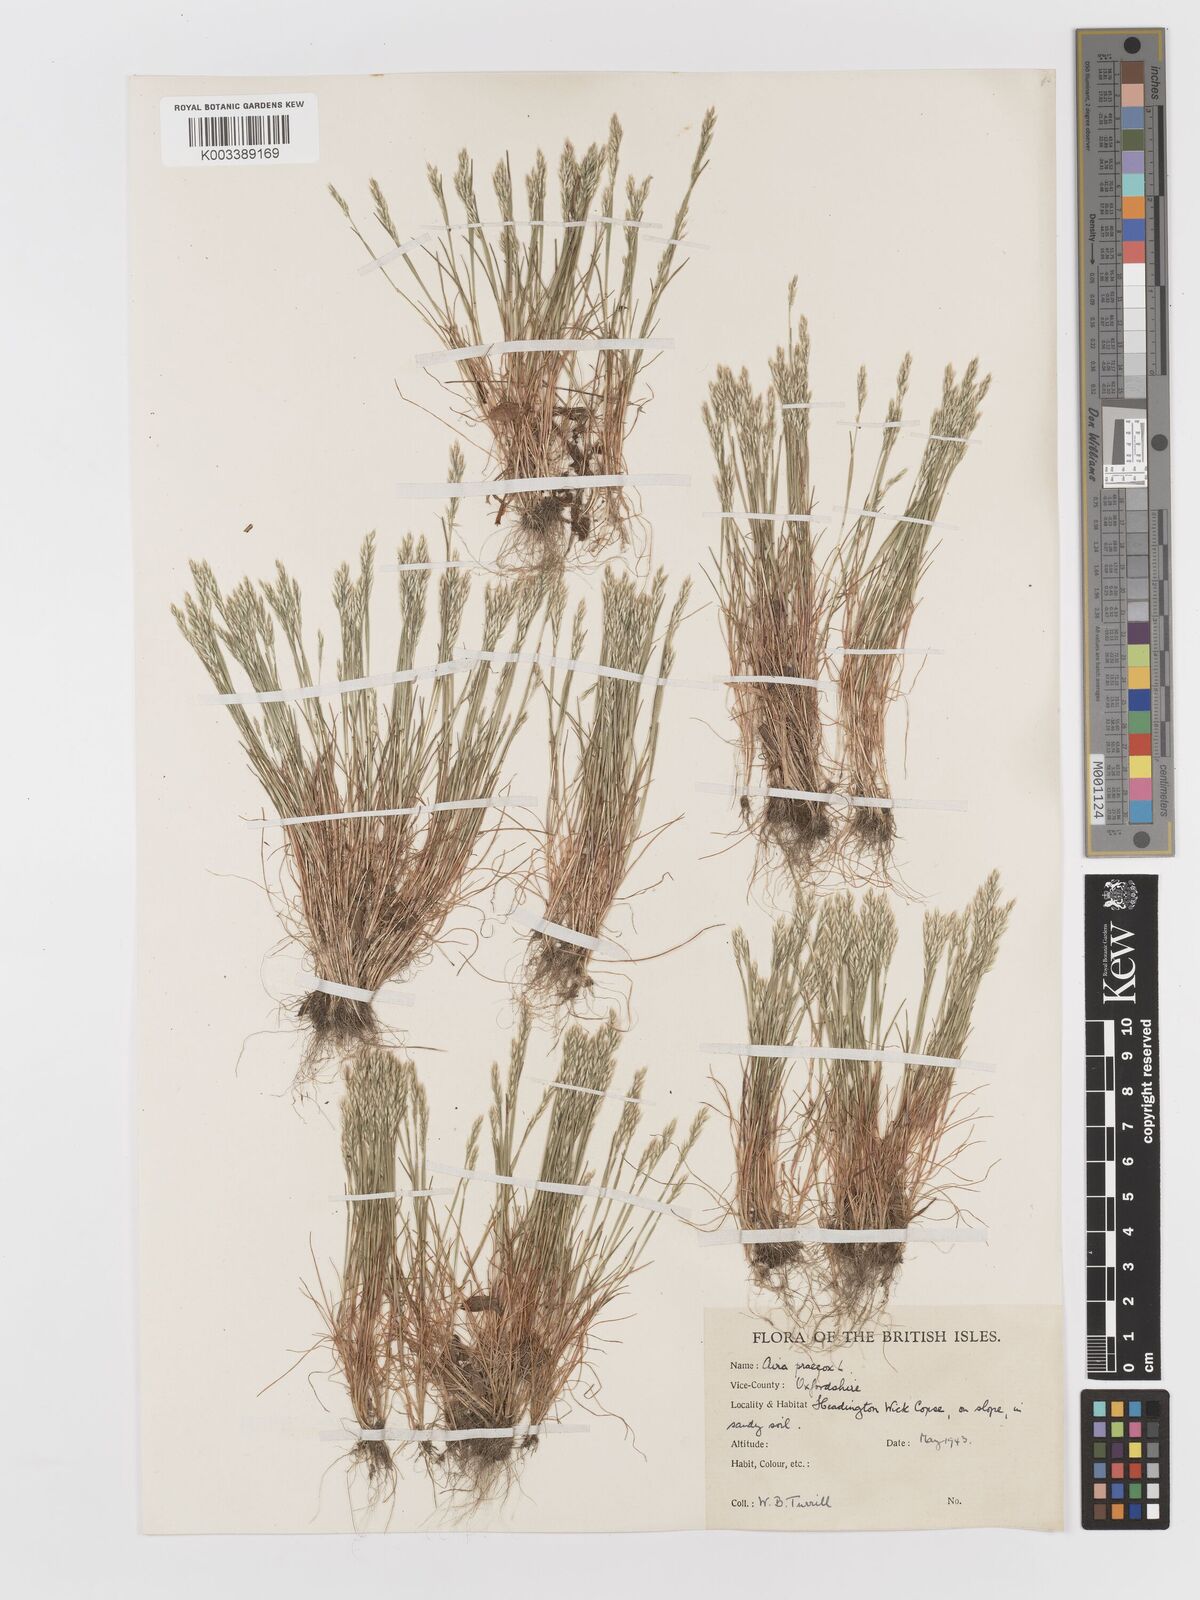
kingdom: Plantae
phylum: Tracheophyta
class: Liliopsida
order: Poales
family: Poaceae
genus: Aira
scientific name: Aira praecox
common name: Early hair-grass
